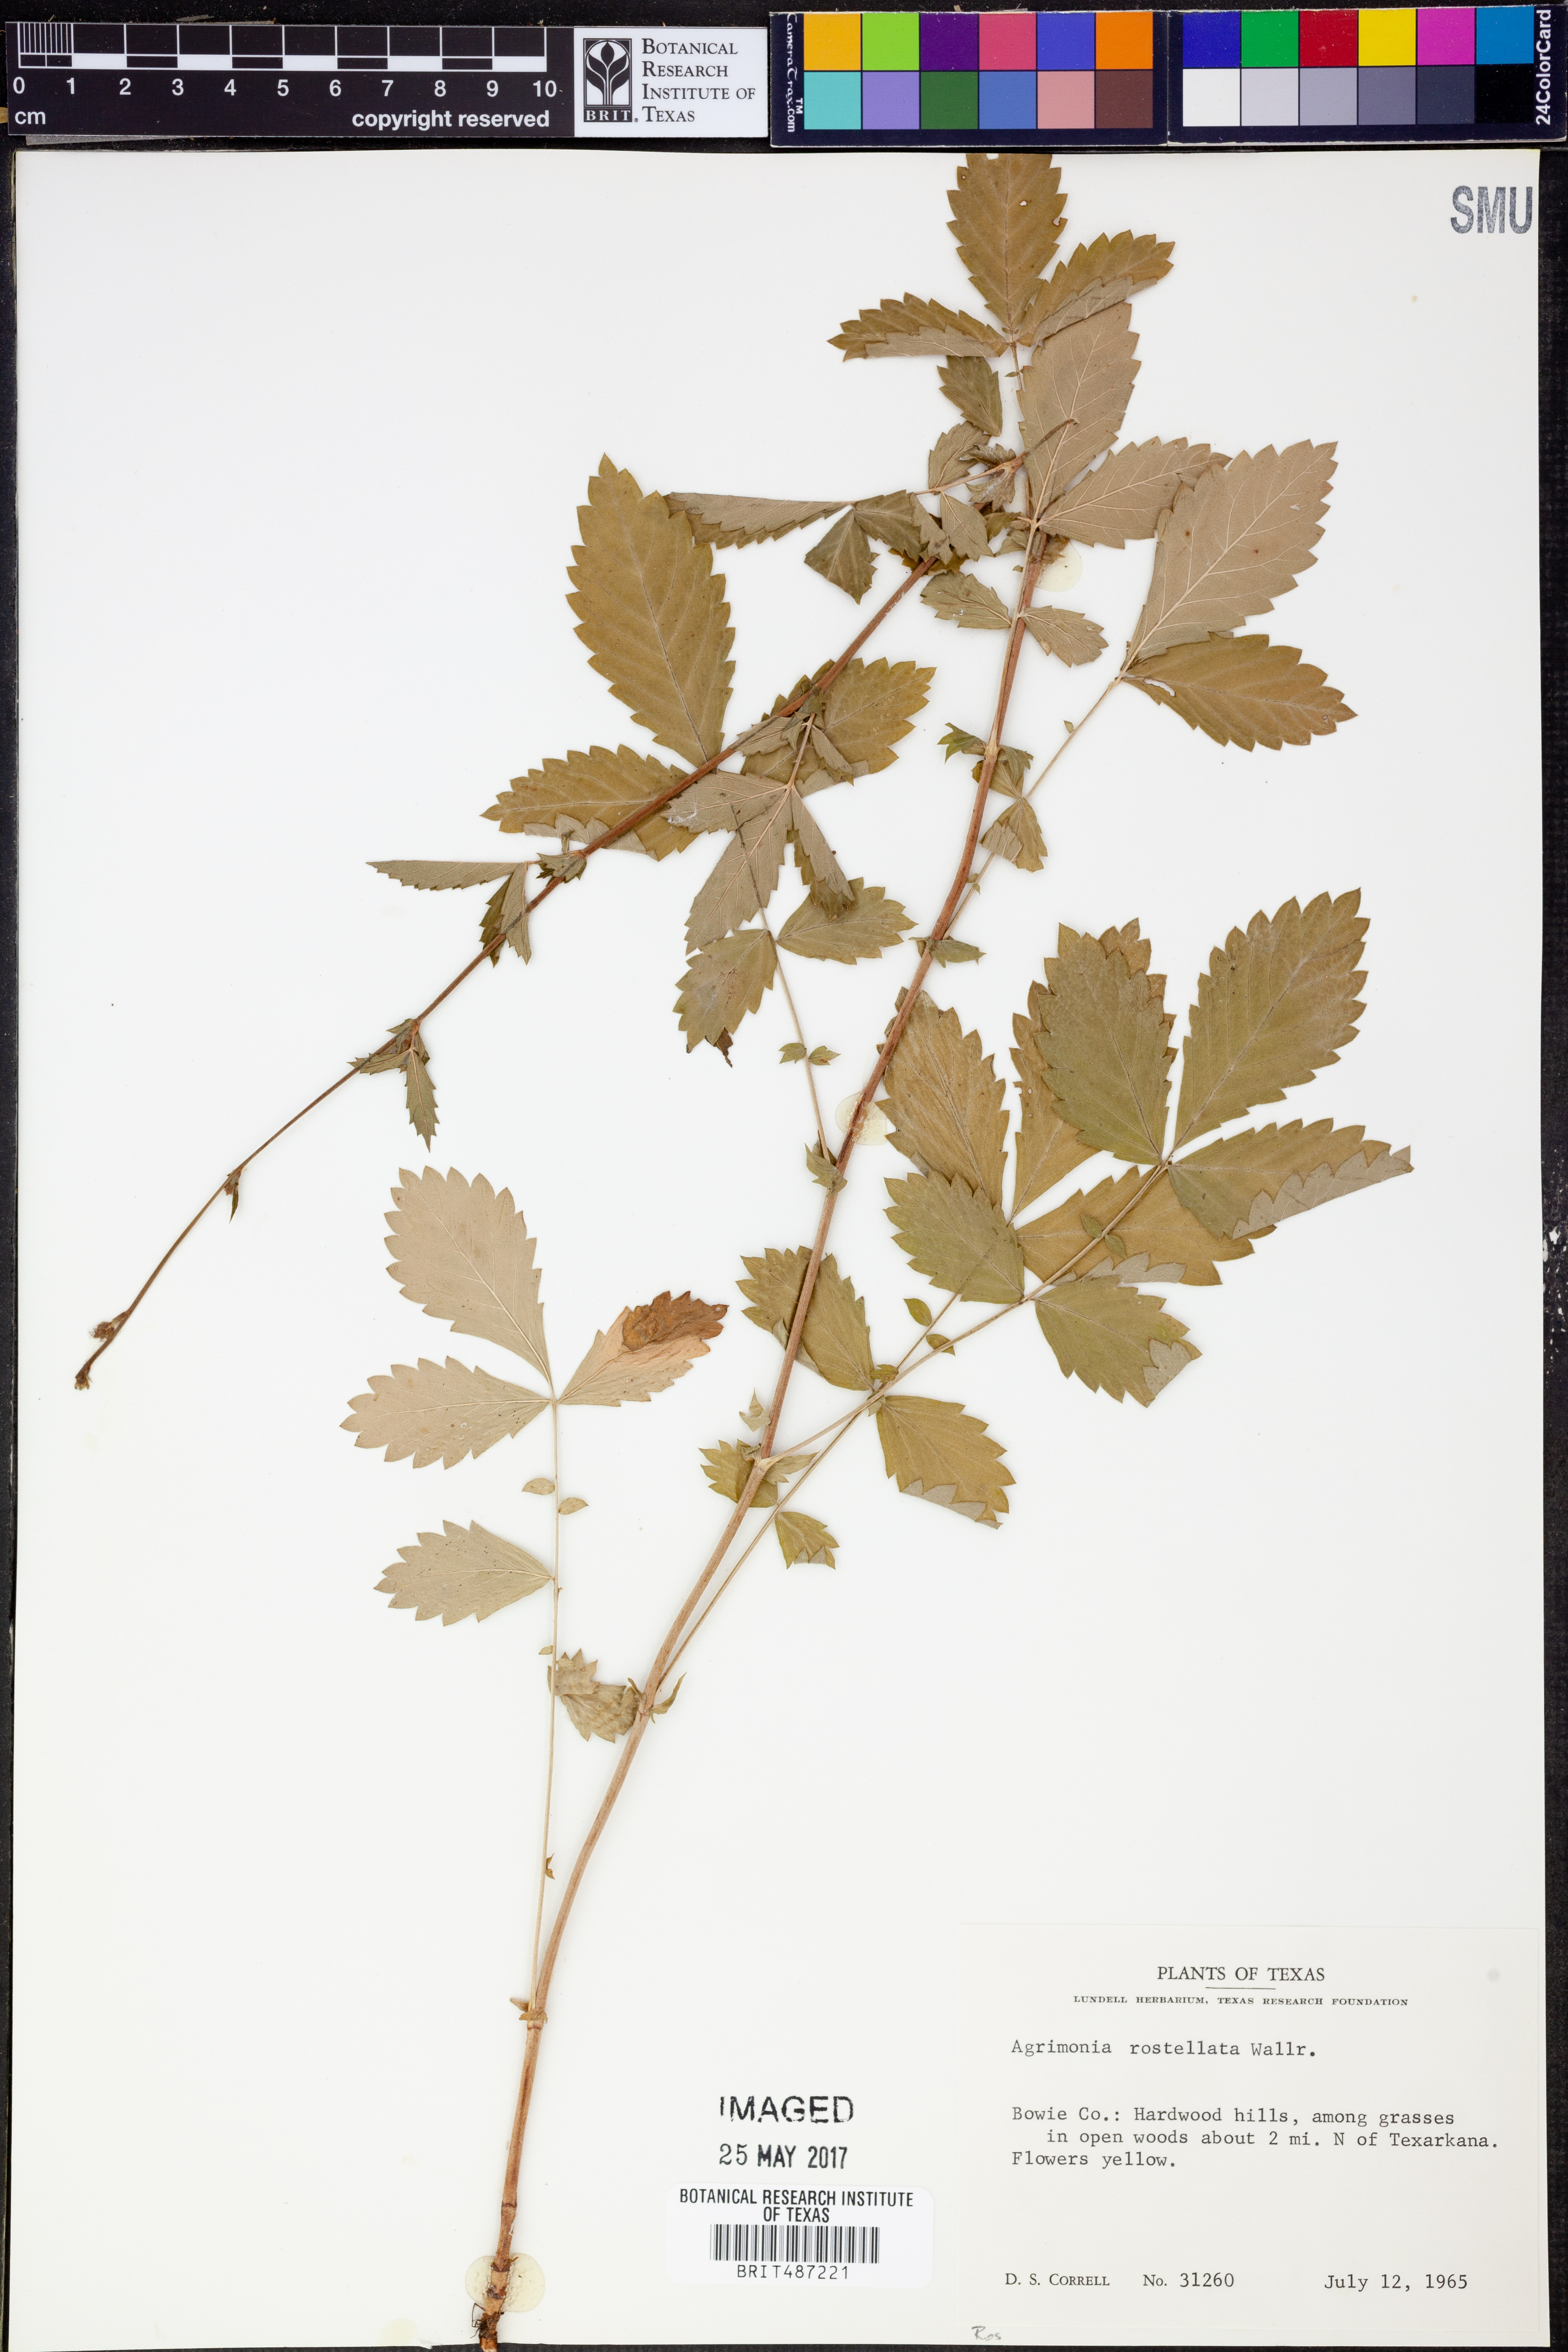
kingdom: Plantae
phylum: Tracheophyta
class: Magnoliopsida
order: Rosales
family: Rosaceae
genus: Agrimonia
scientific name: Agrimonia rostellata
